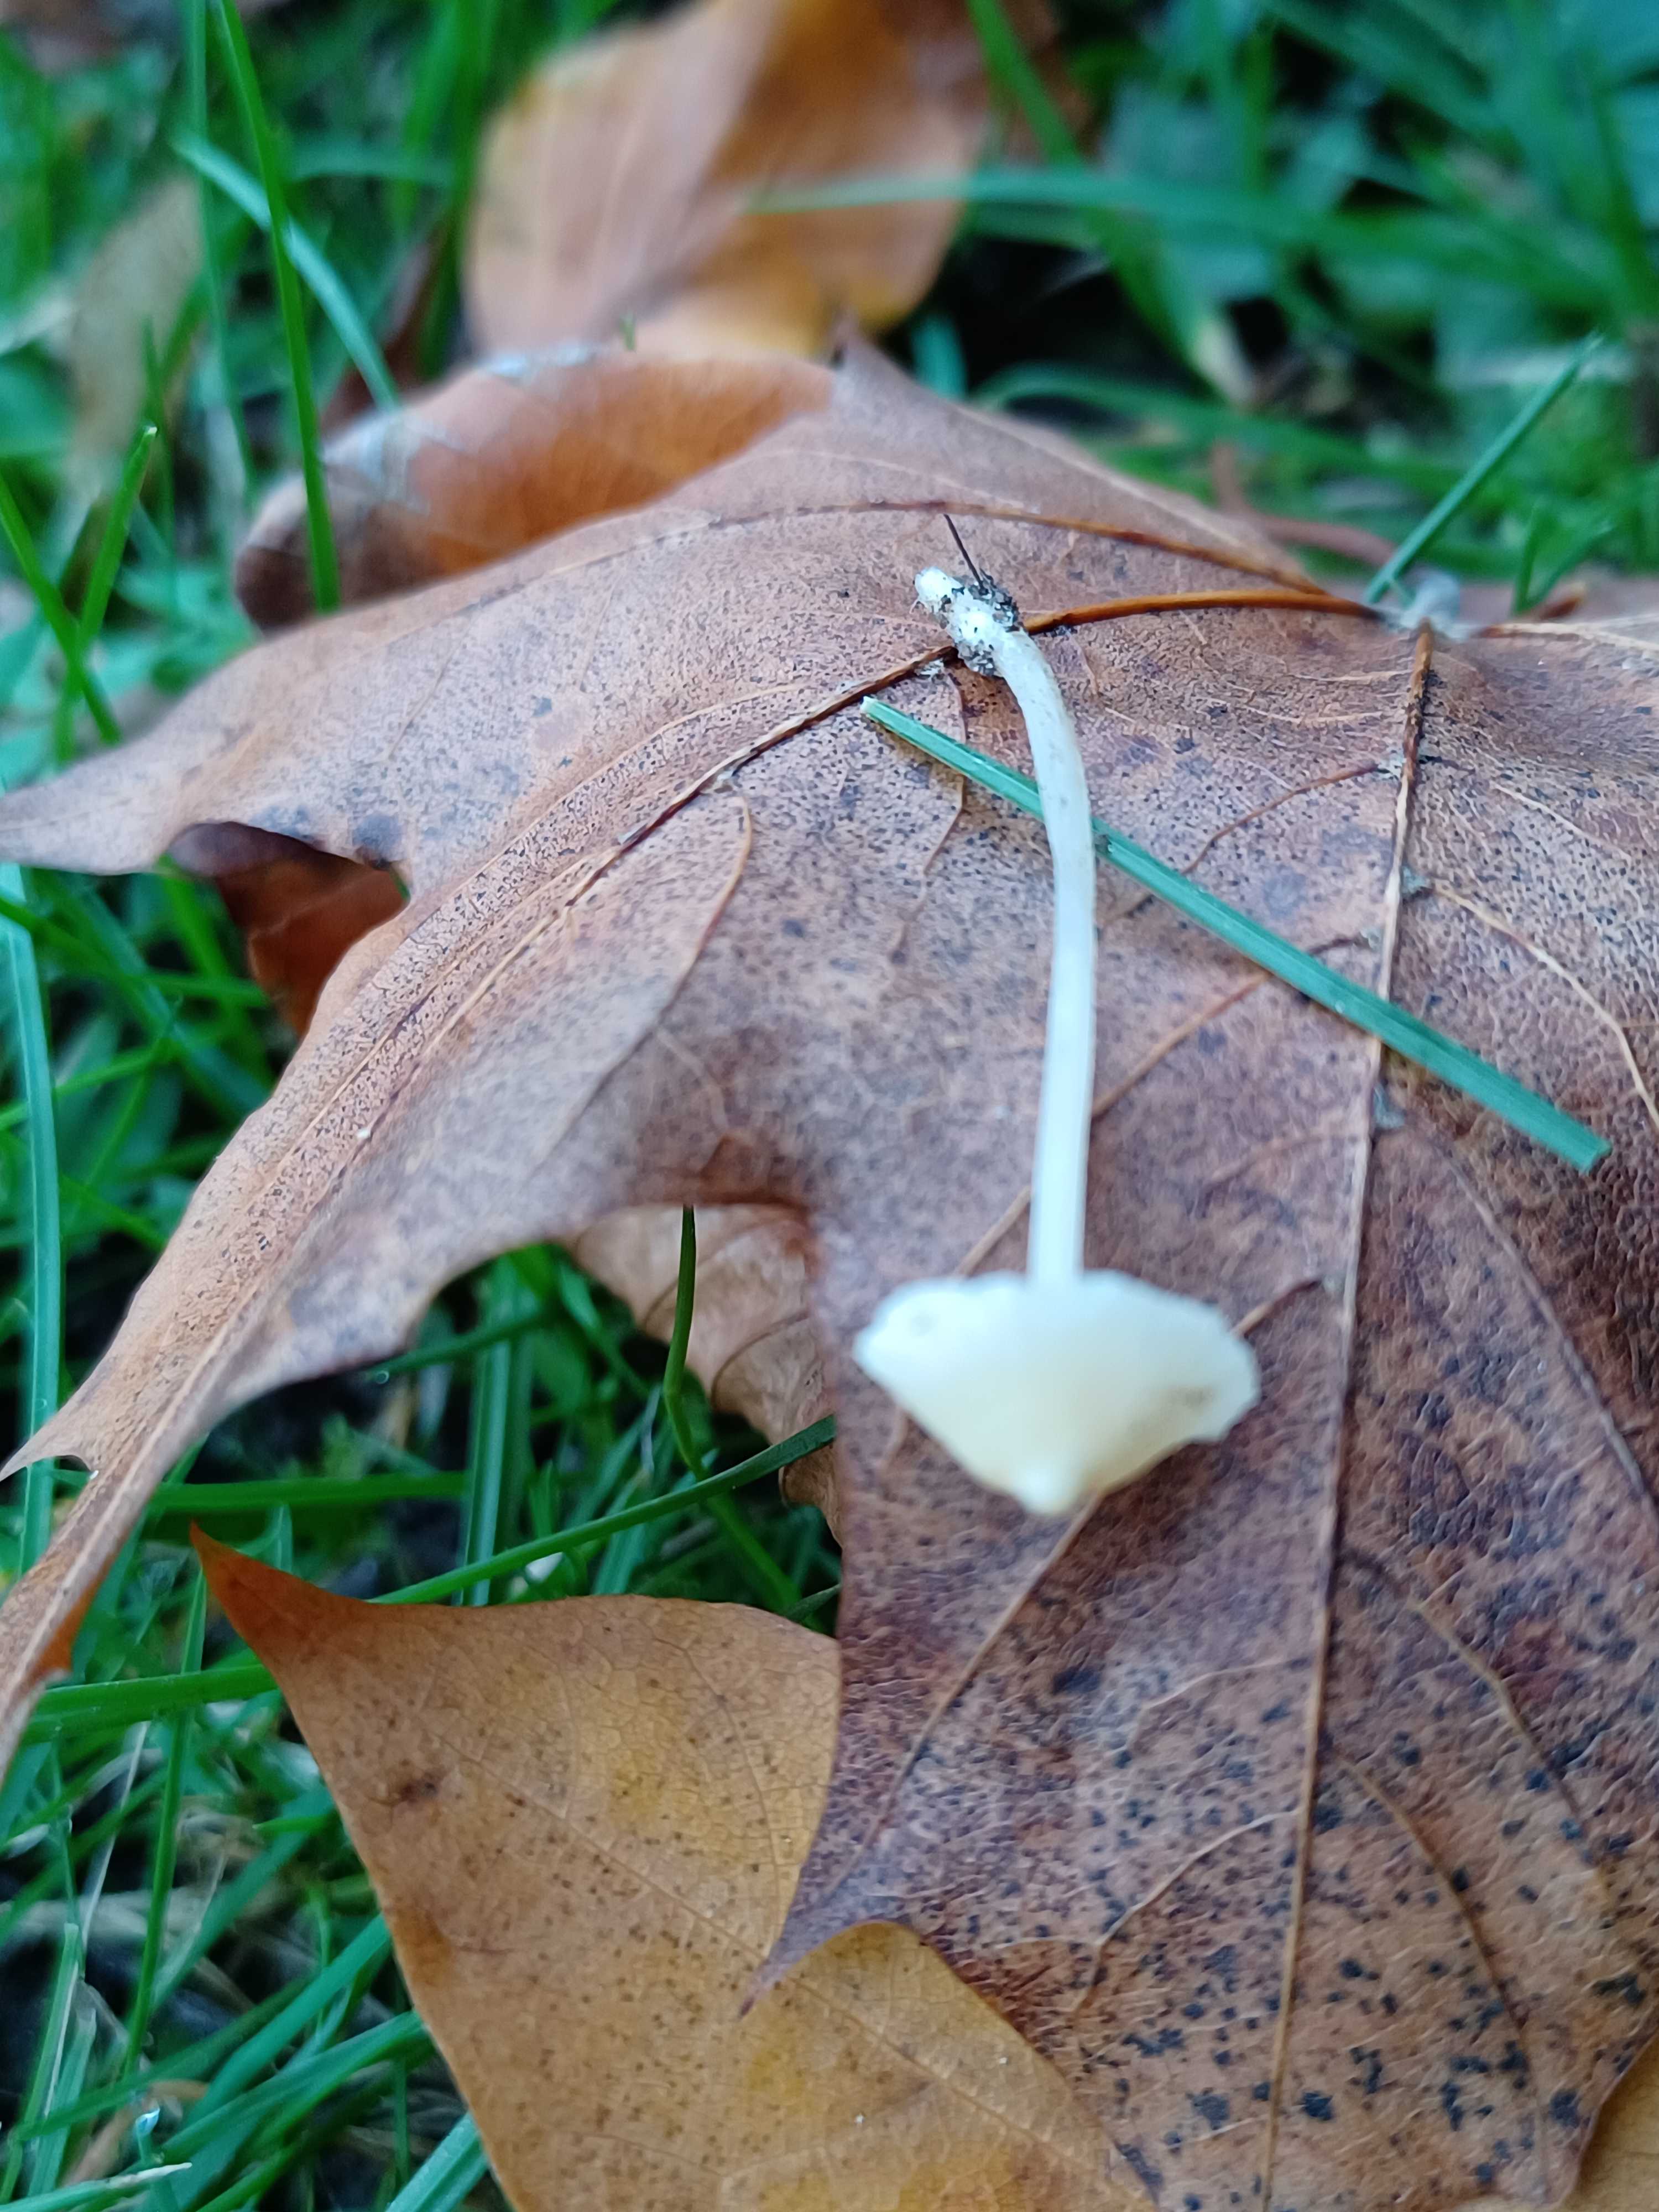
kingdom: Fungi
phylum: Basidiomycota
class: Agaricomycetes
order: Agaricales
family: Mycenaceae
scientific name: Mycenaceae
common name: huesvampfamilien
